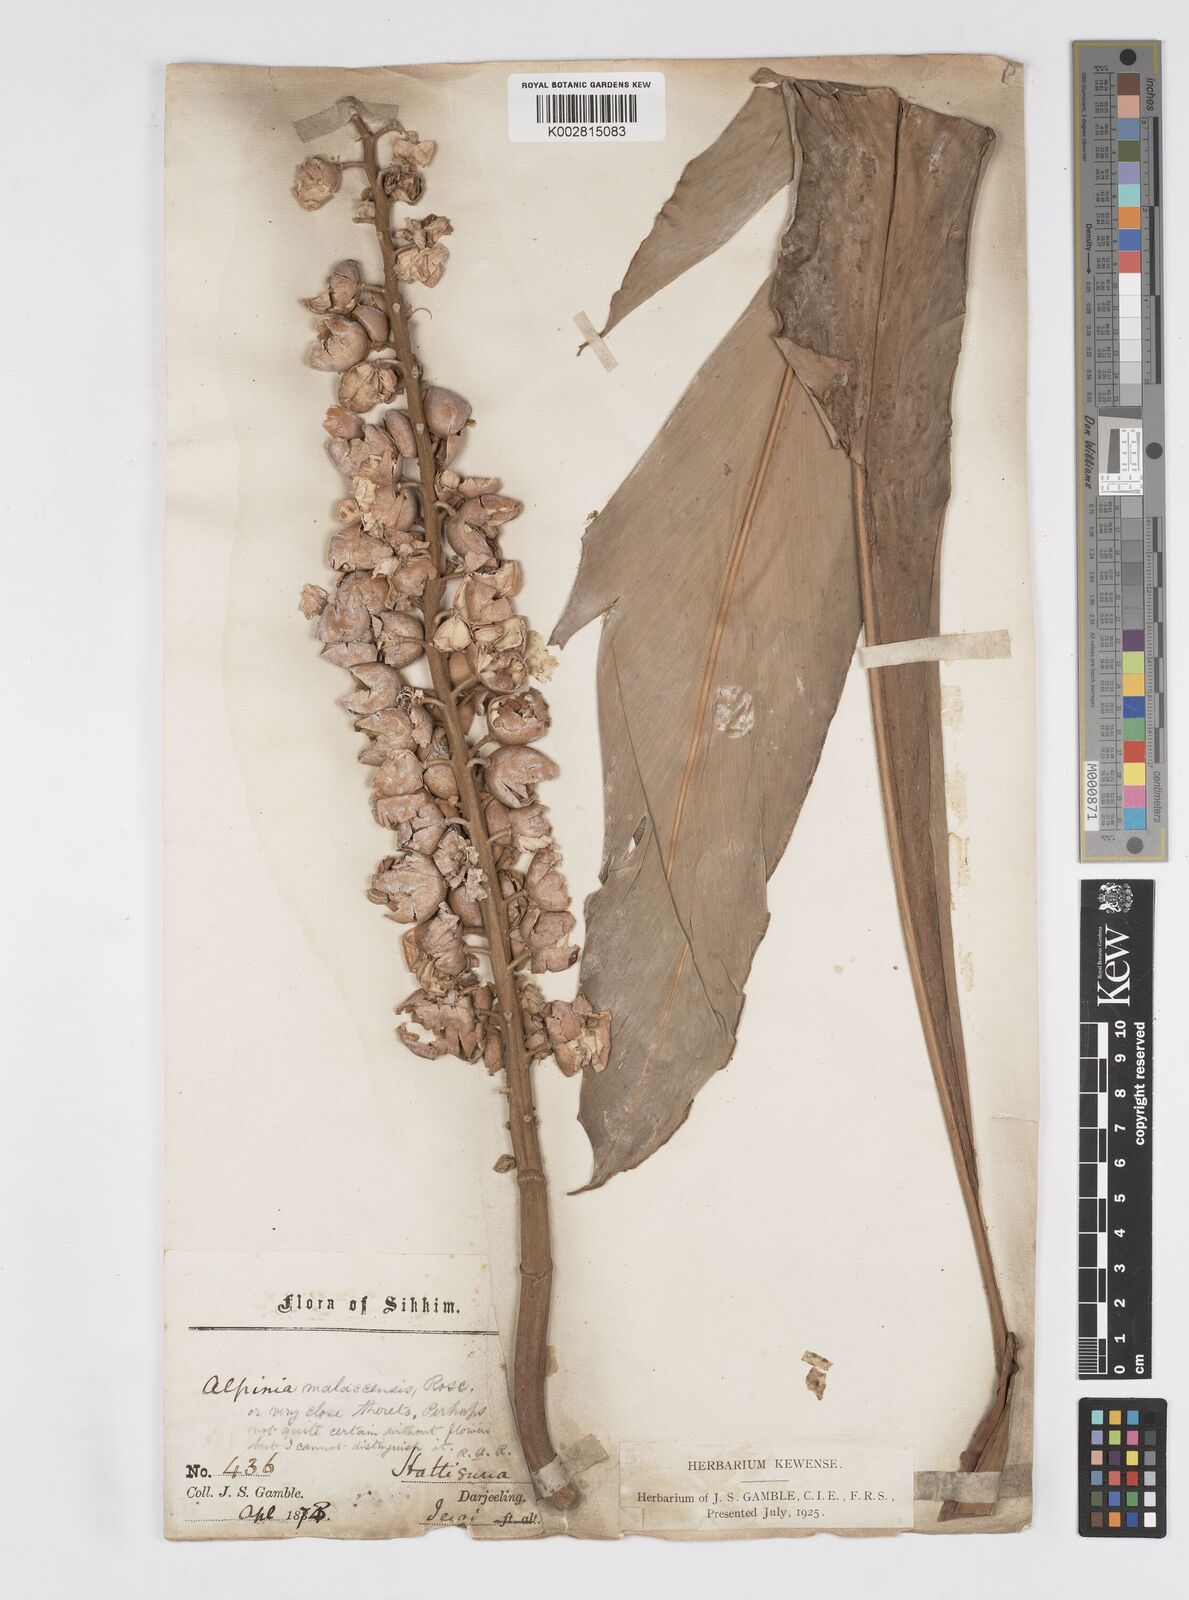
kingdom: Plantae
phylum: Tracheophyta
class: Liliopsida
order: Zingiberales
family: Zingiberaceae
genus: Alpinia
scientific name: Alpinia malaccensis
